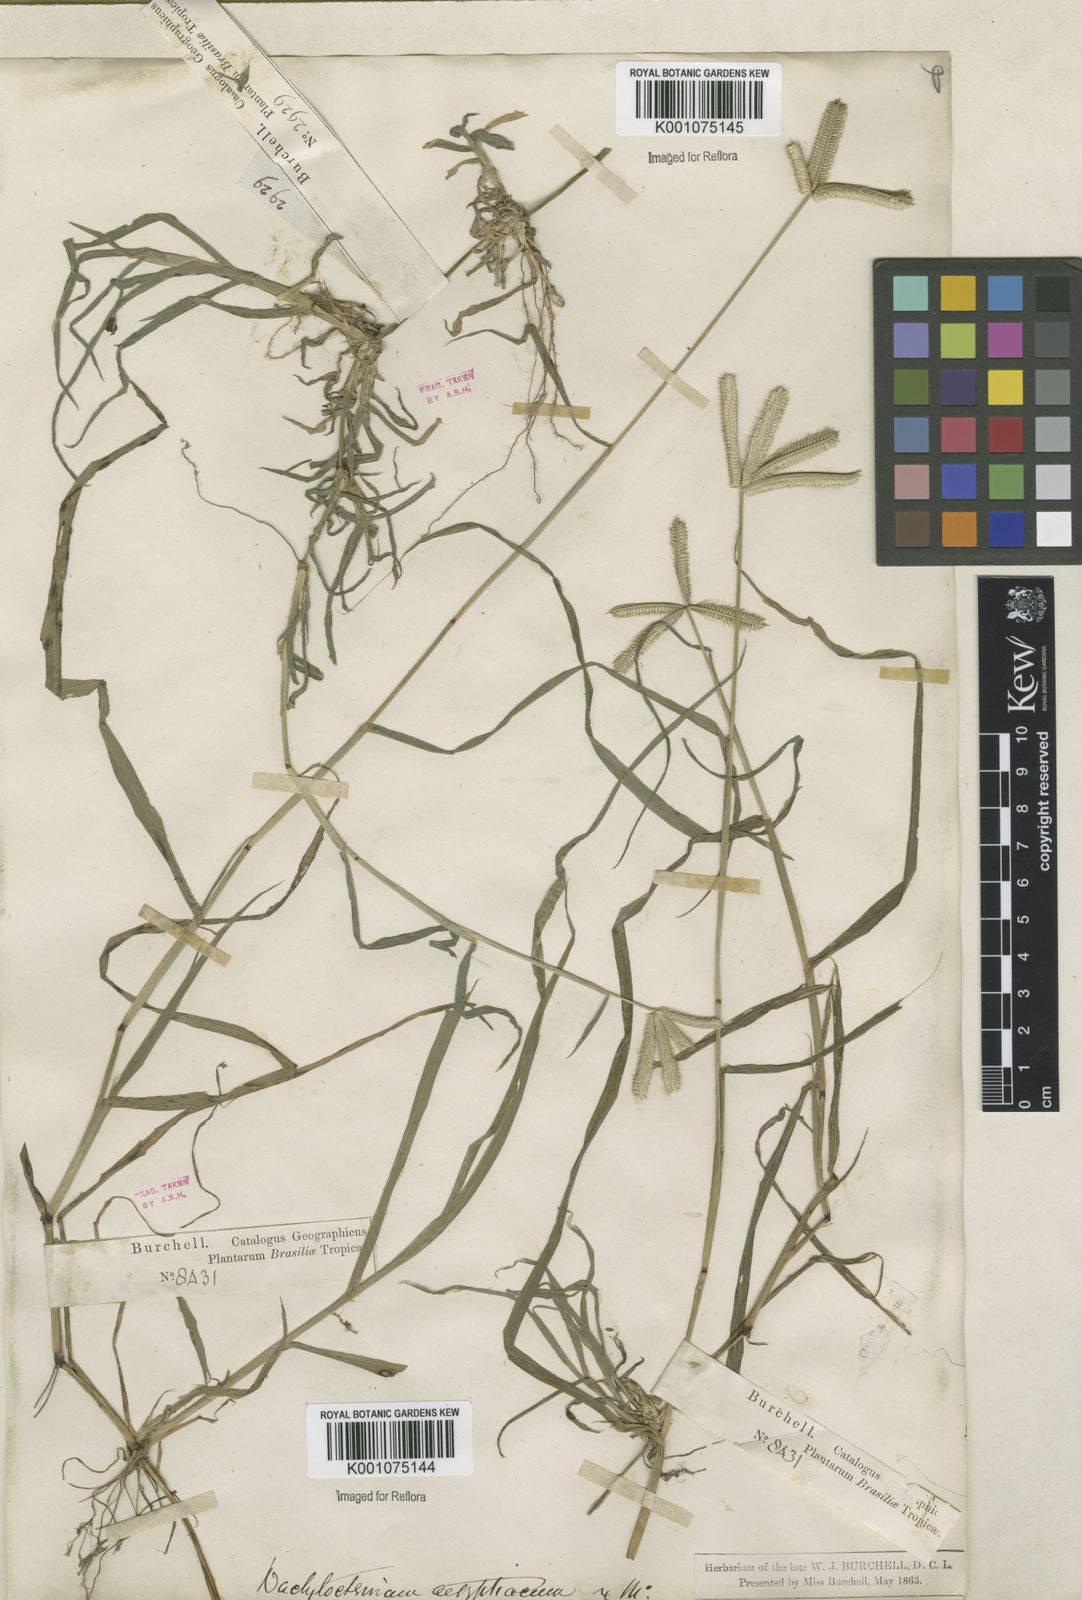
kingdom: Plantae
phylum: Tracheophyta
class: Liliopsida
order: Poales
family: Poaceae
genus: Dactyloctenium
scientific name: Dactyloctenium aegyptium
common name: Egyptian grass
